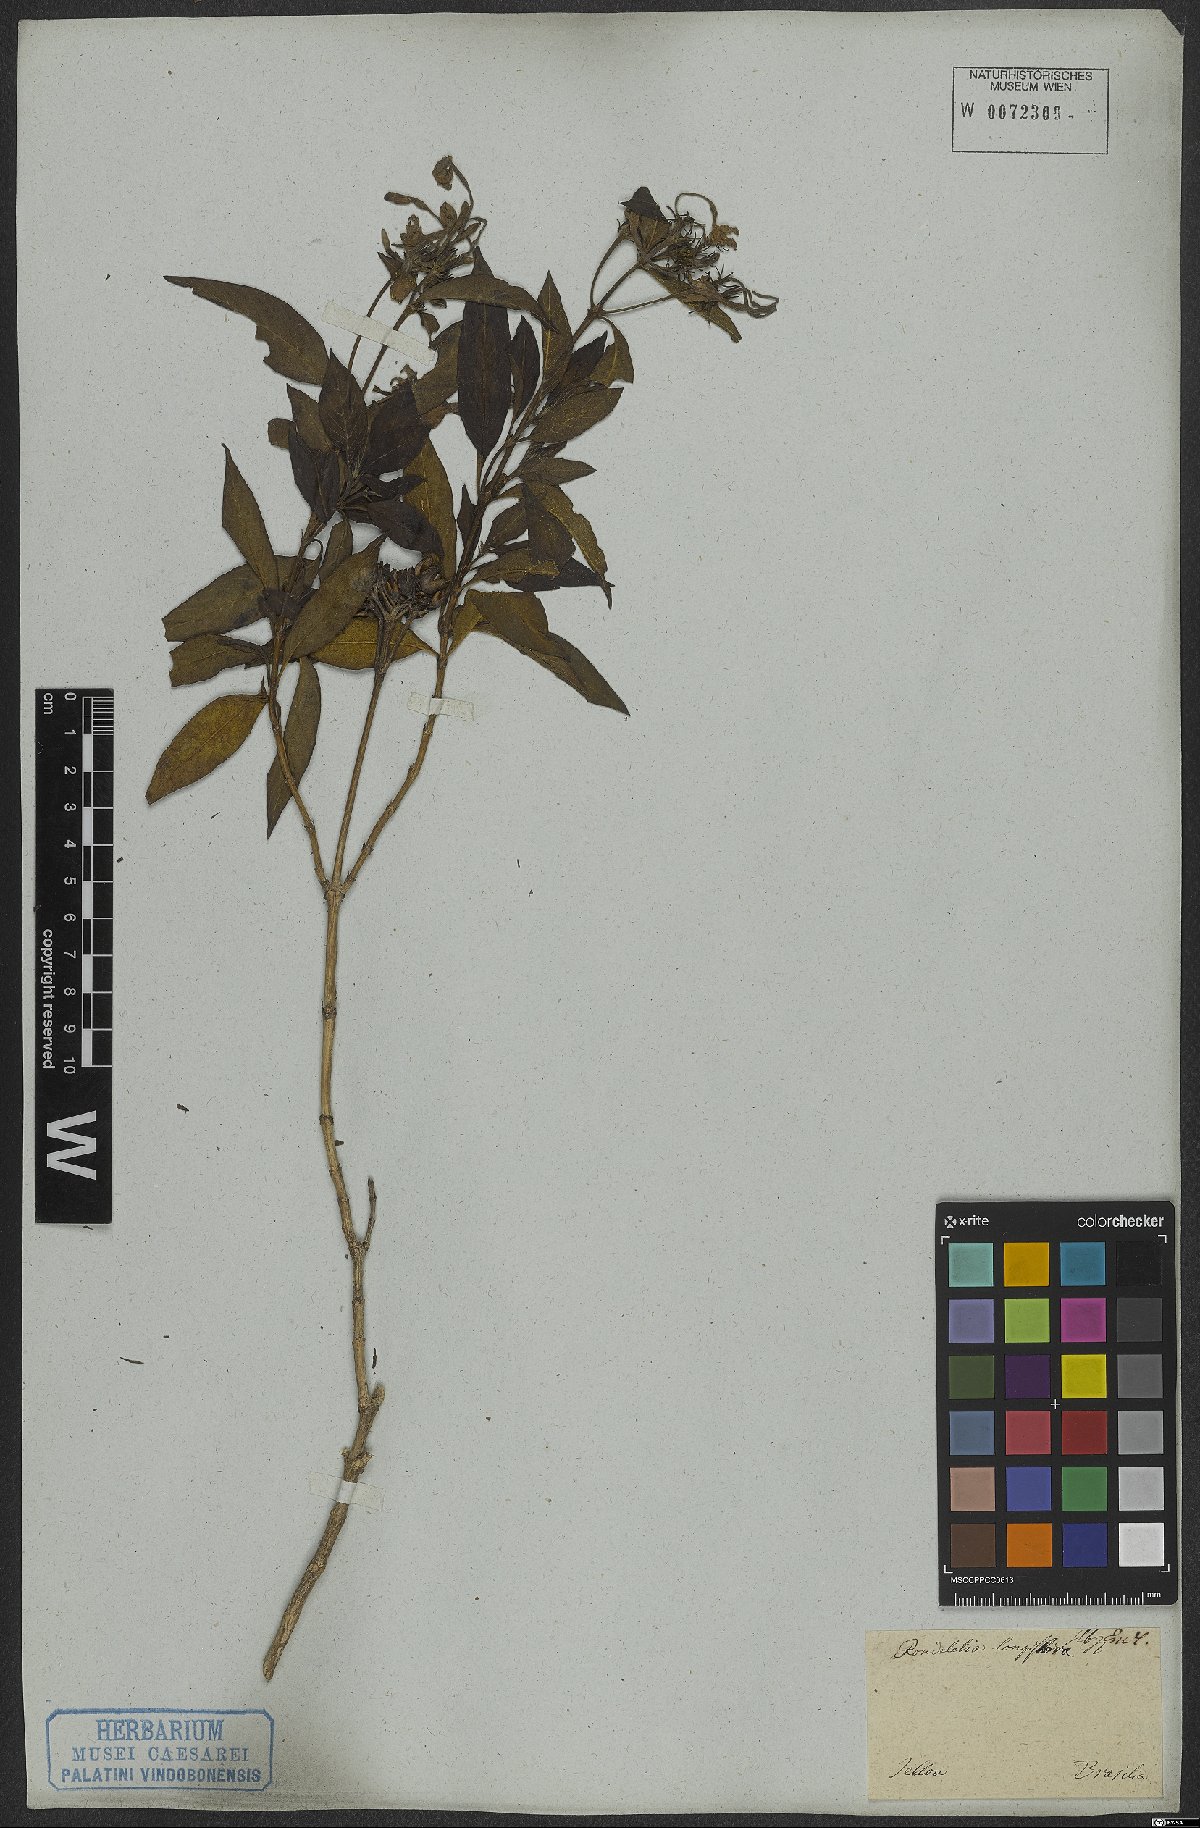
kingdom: Plantae
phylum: Tracheophyta
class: Magnoliopsida
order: Gentianales
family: Rubiaceae
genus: Hindsia
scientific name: Hindsia longiflora
